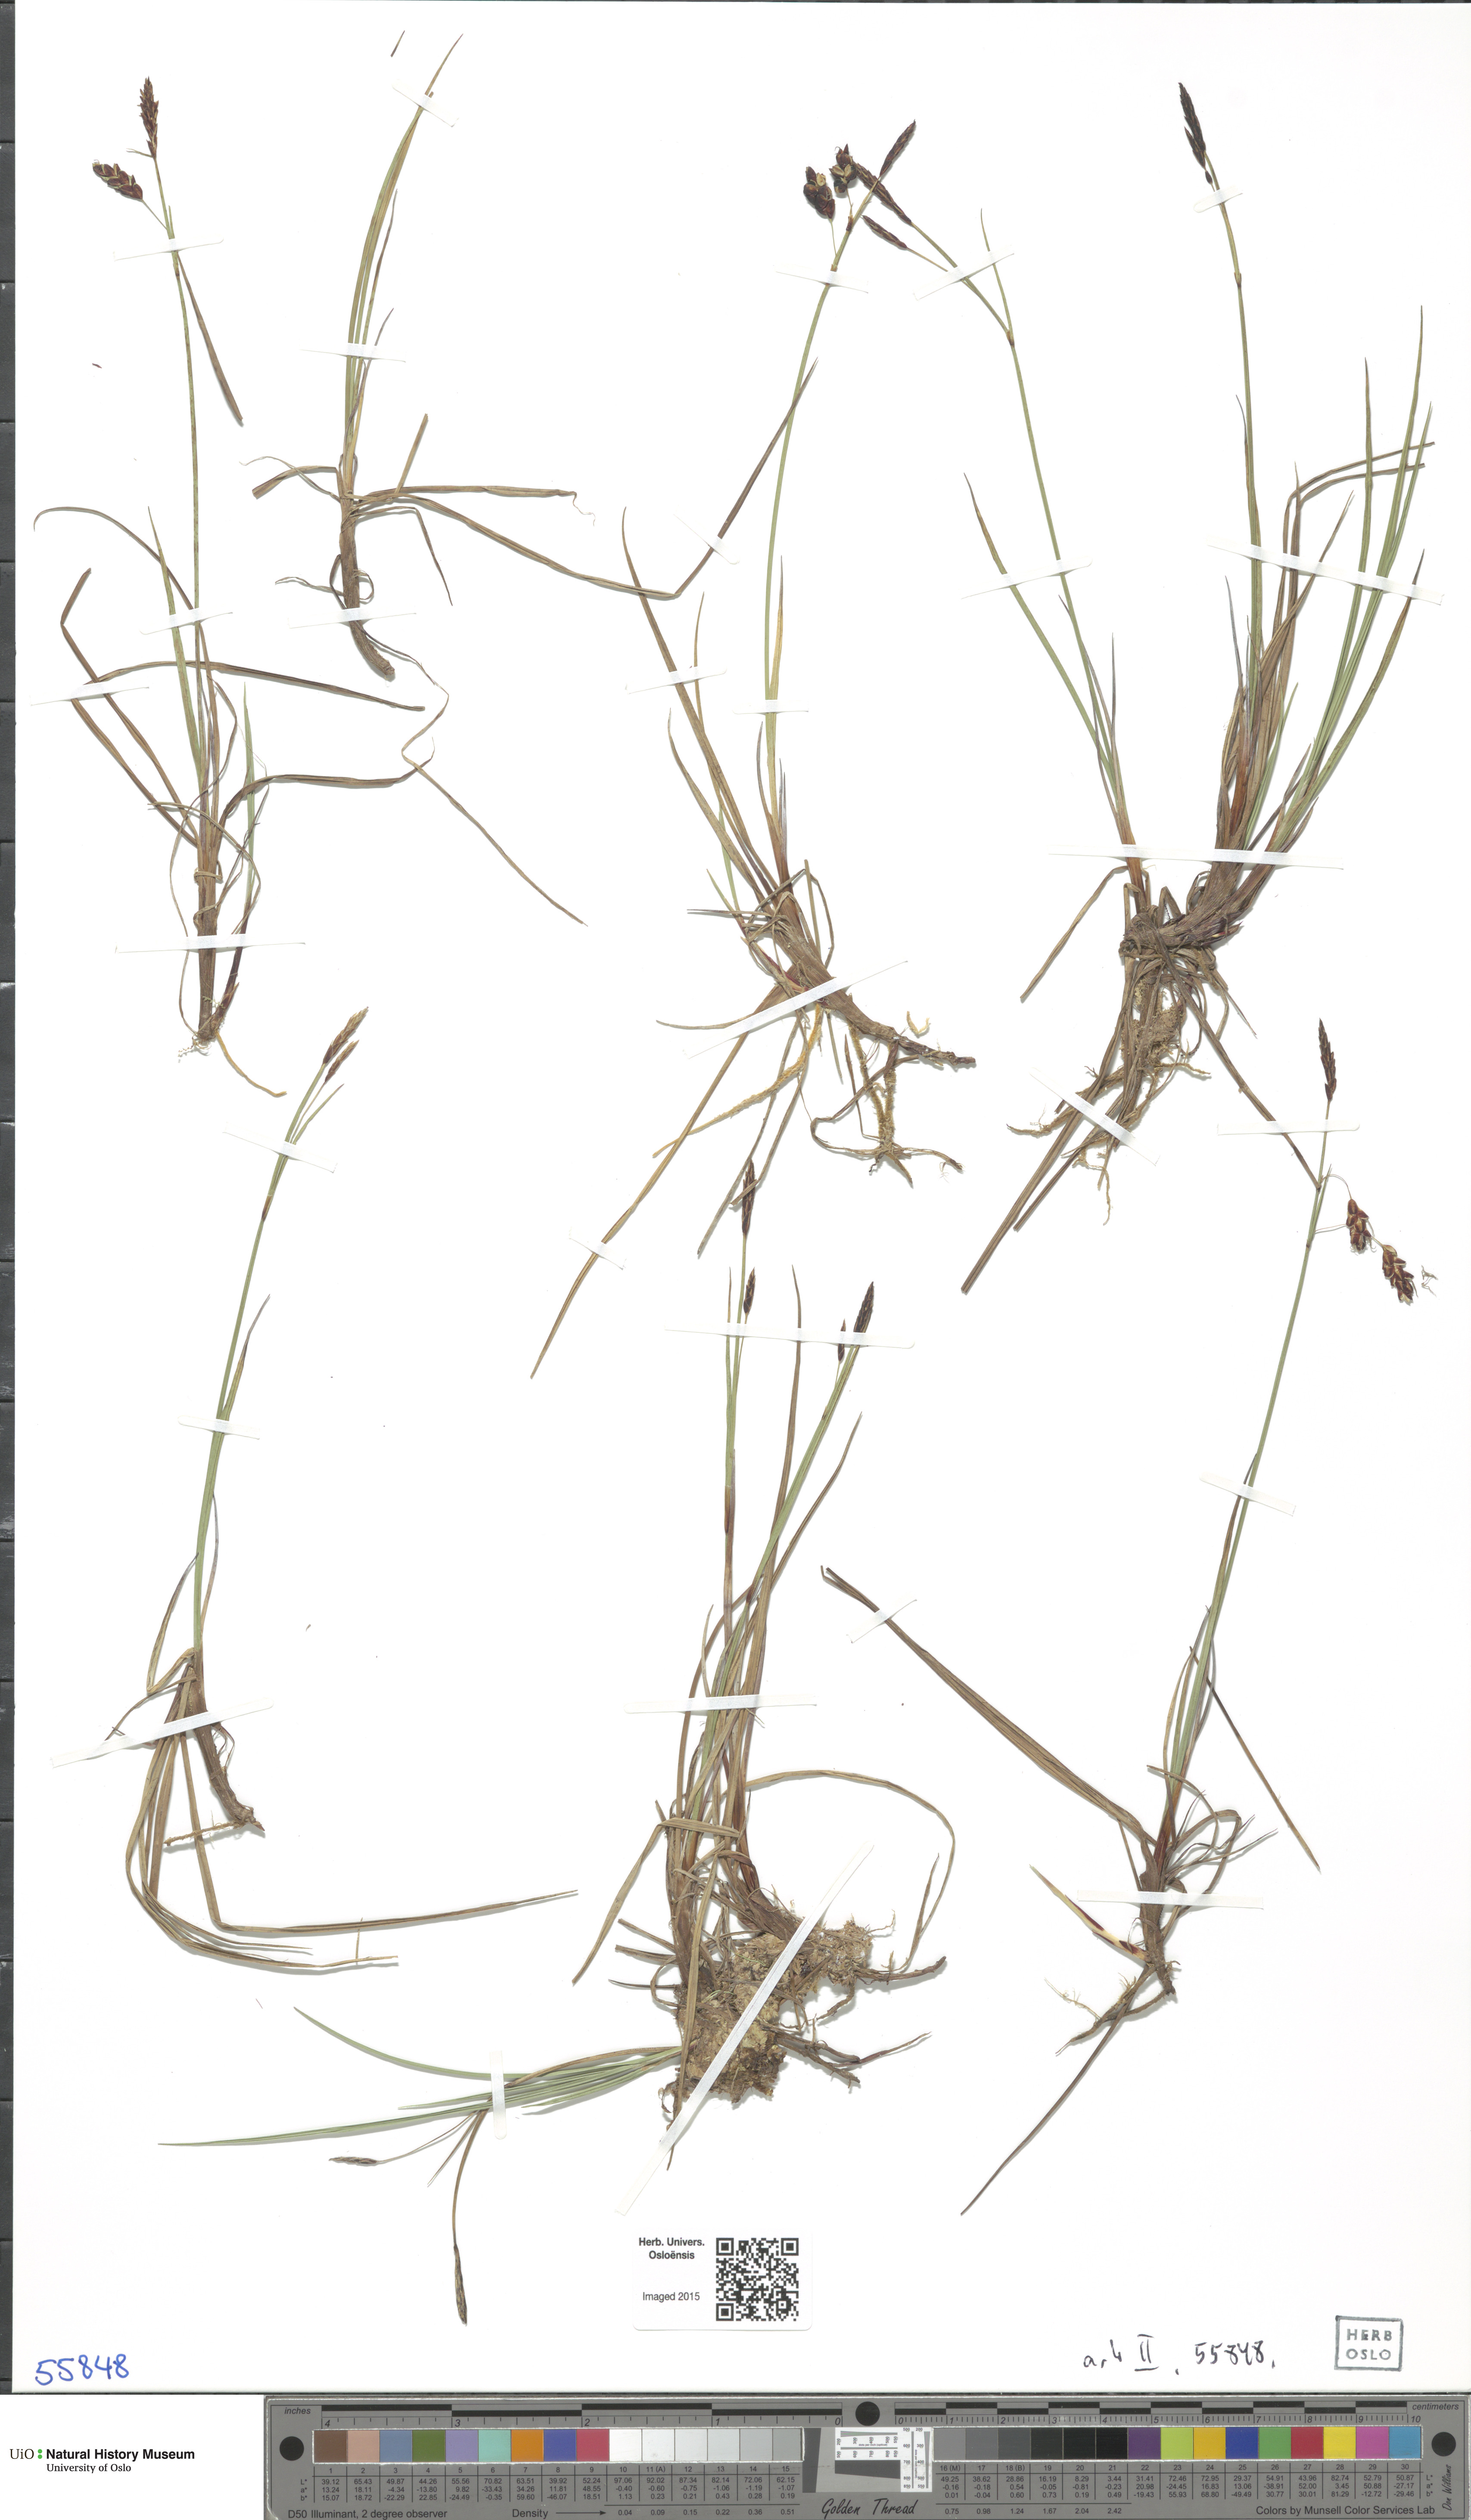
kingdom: Plantae
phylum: Tracheophyta
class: Liliopsida
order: Poales
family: Cyperaceae
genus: Carex
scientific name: Carex
